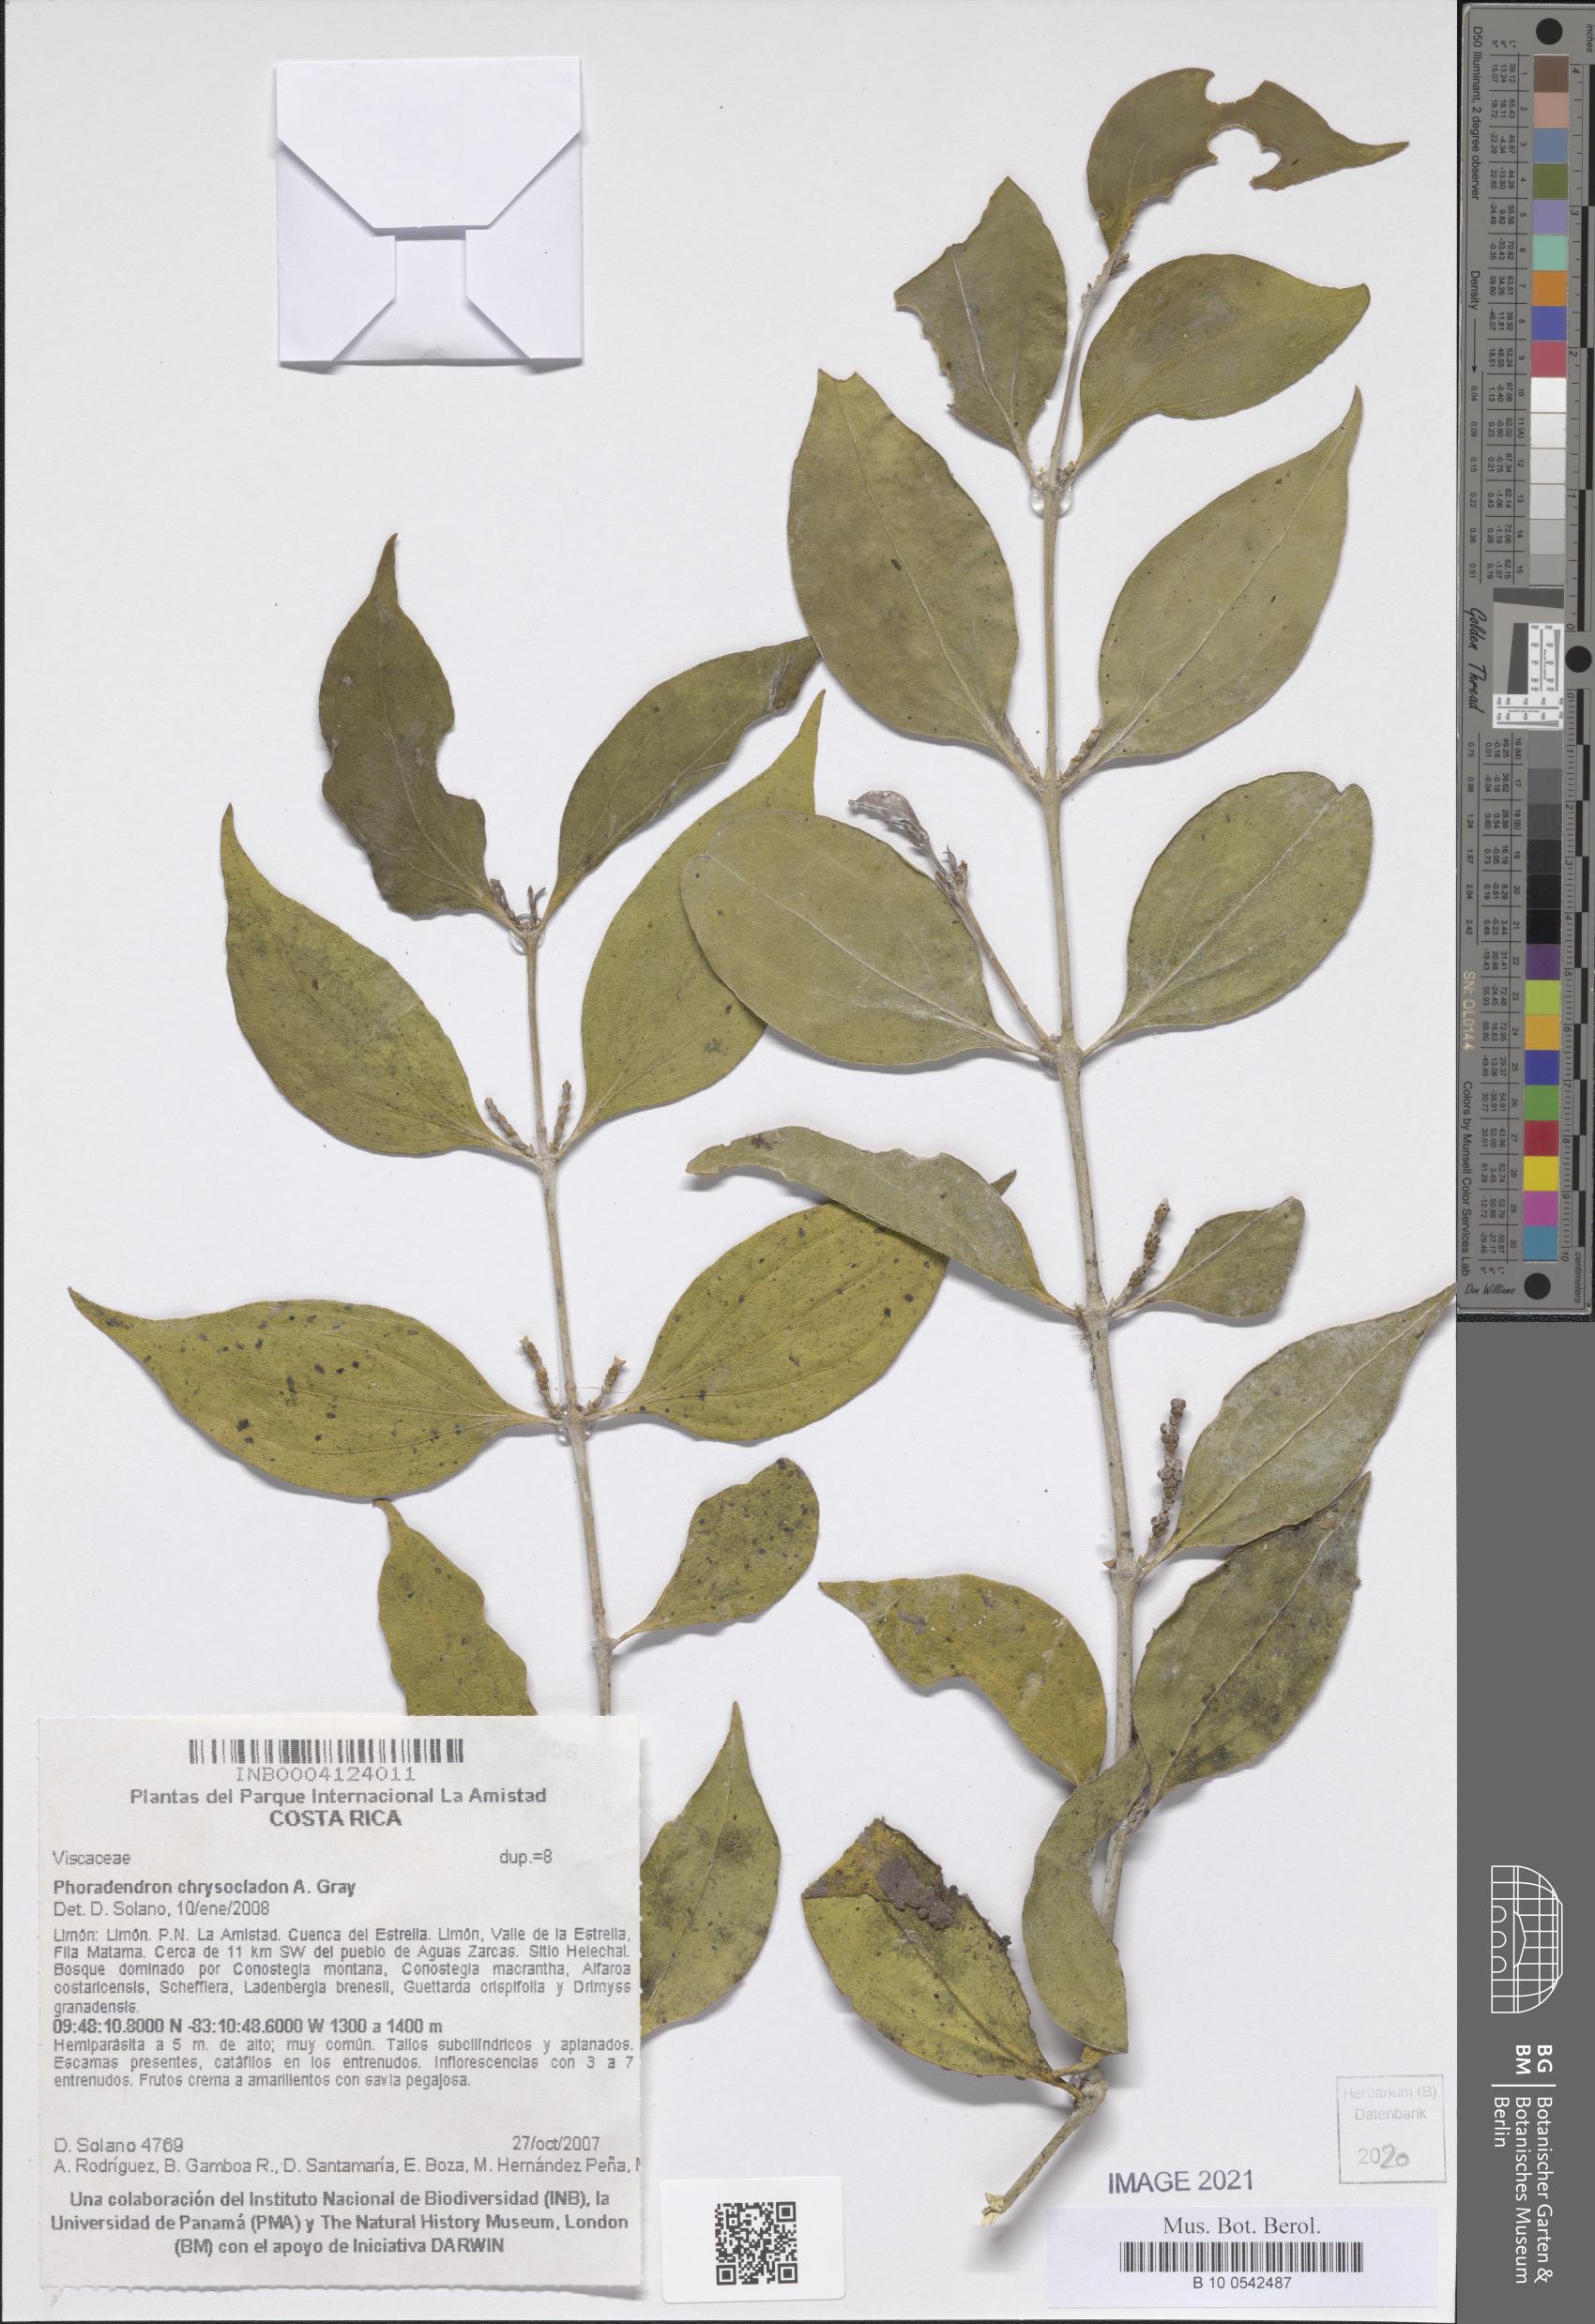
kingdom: Plantae
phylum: Tracheophyta
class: Magnoliopsida
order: Santalales
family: Viscaceae
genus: Phoradendron
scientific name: Phoradendron chrysocladon
